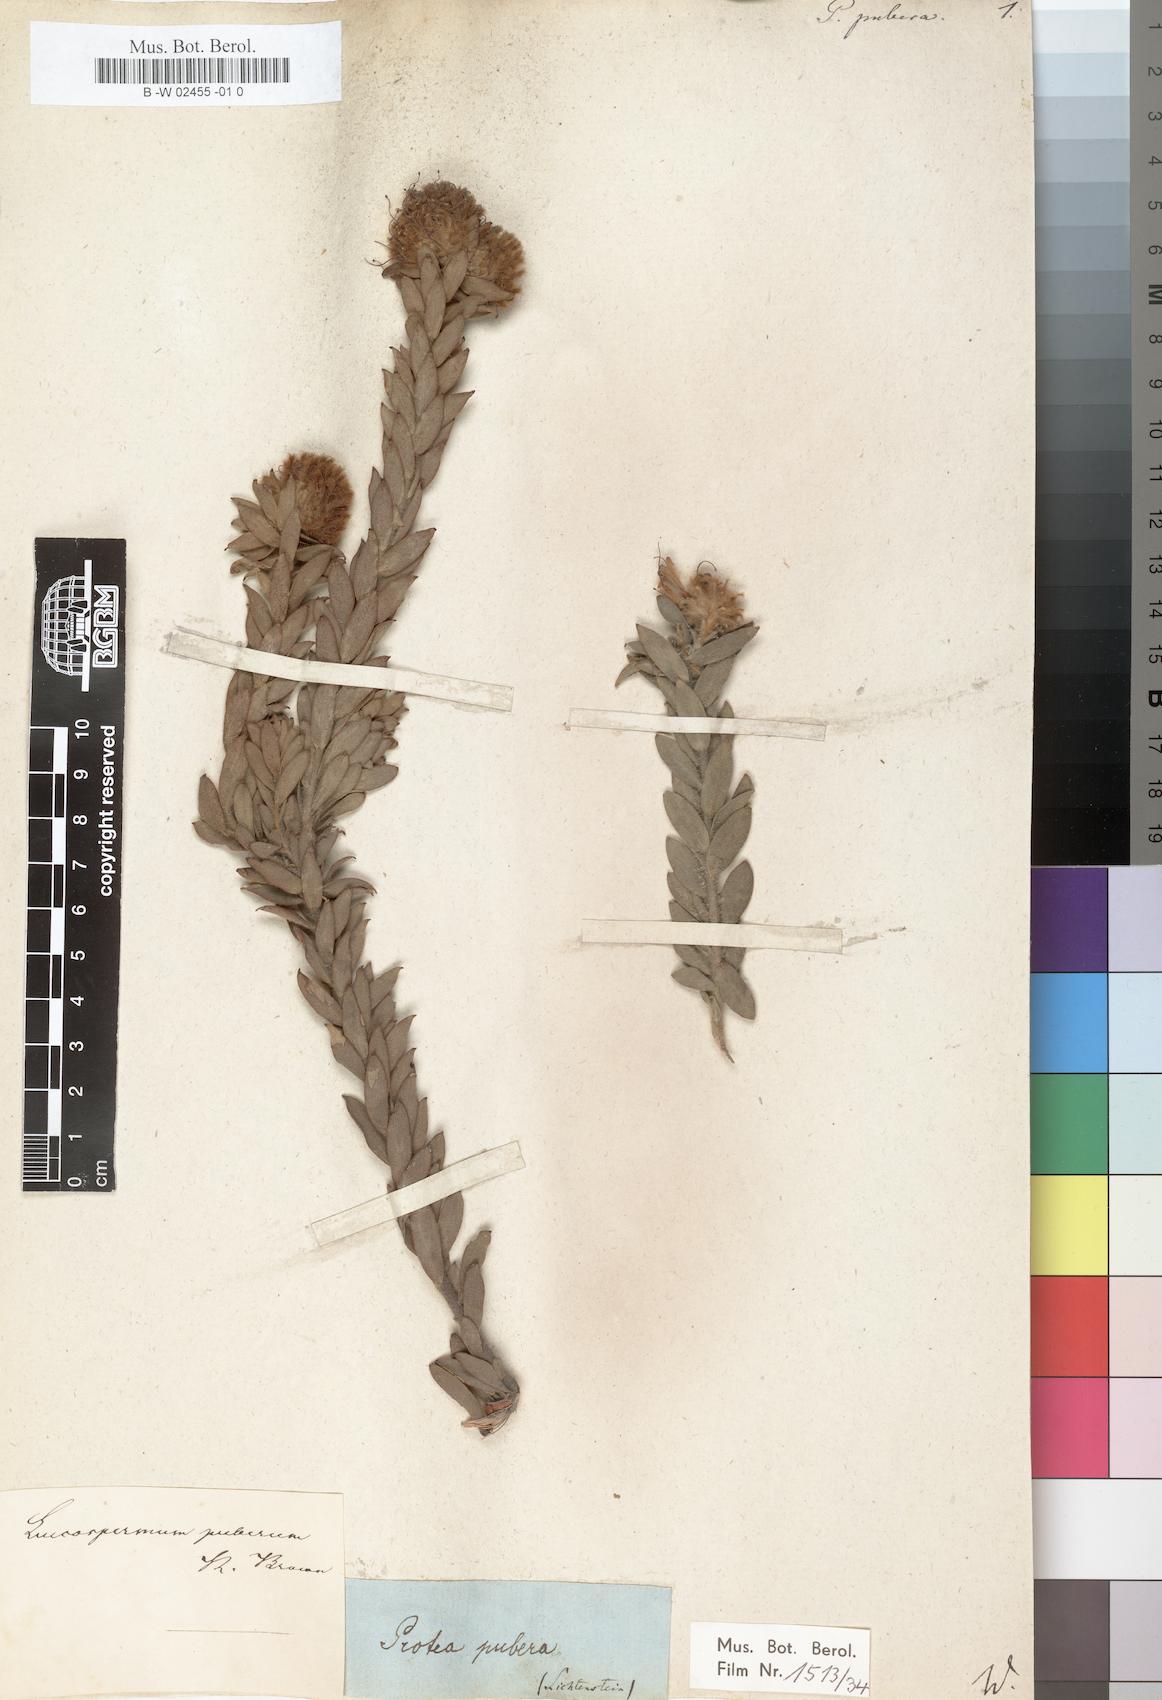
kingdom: Plantae
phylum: Tracheophyta
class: Magnoliopsida
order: Proteales
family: Proteaceae
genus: Diastella
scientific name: Diastella thymelaeoides
